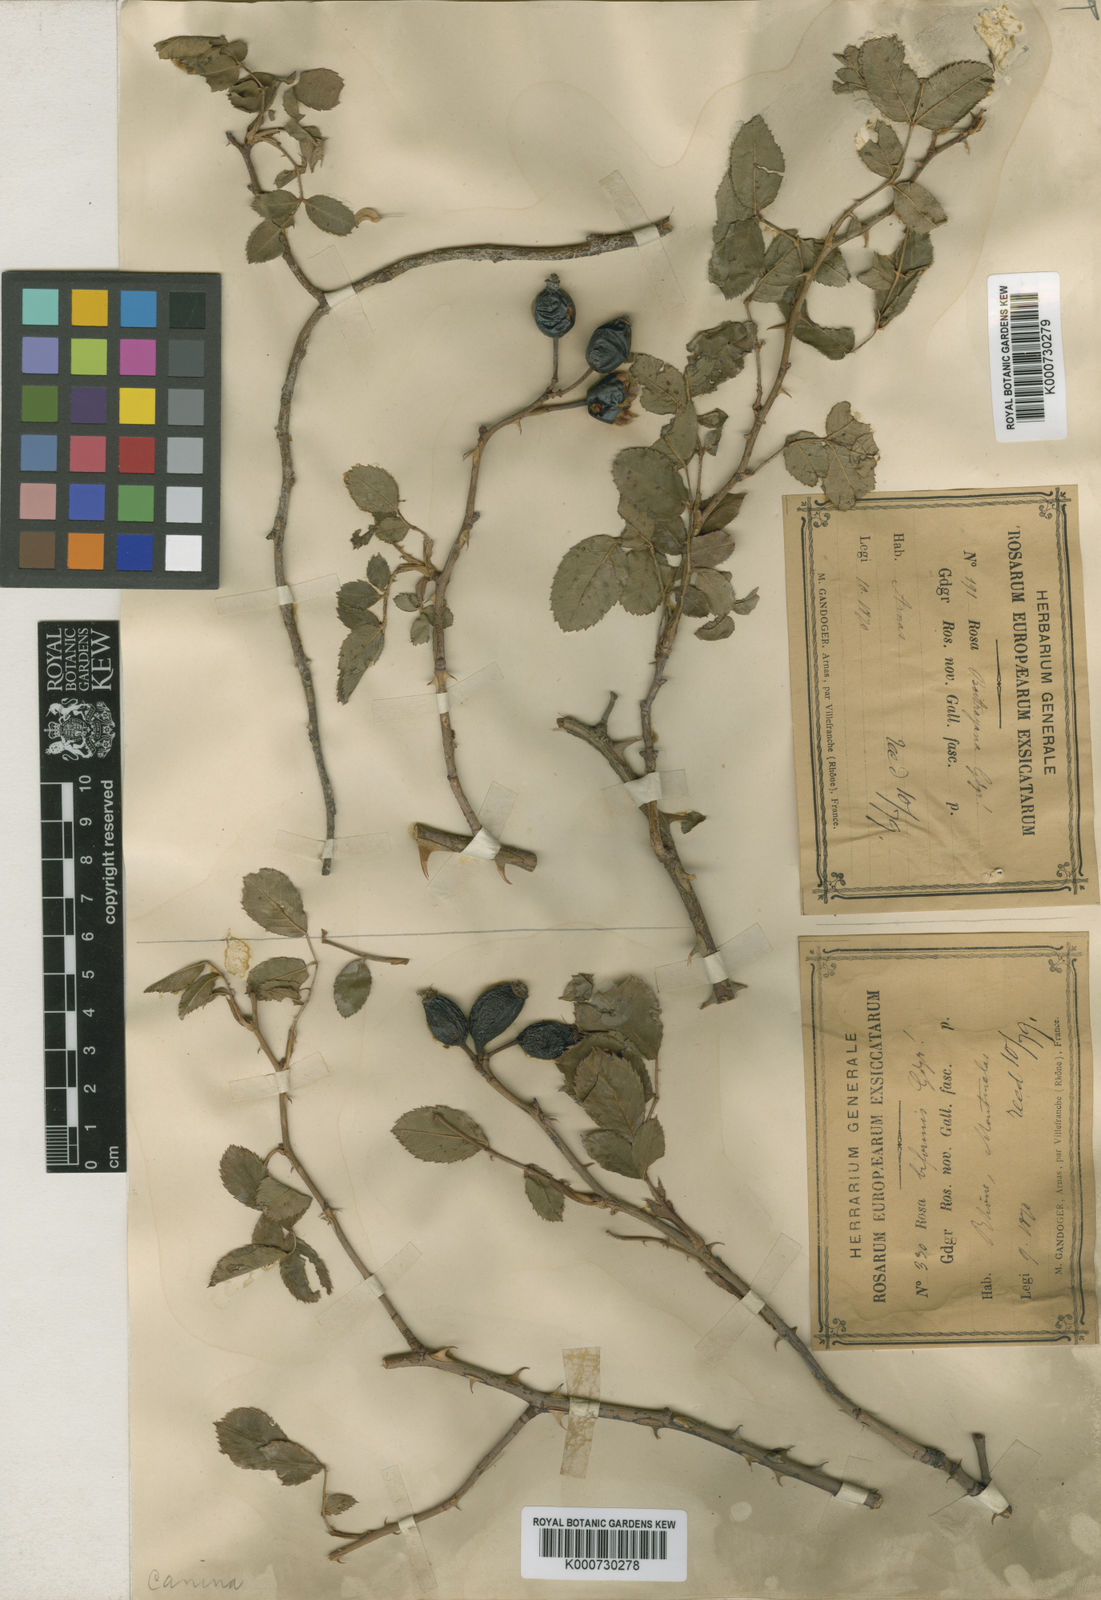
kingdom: Plantae
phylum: Tracheophyta
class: Magnoliopsida
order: Rosales
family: Rosaceae
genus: Rosa
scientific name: Rosa canina
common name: Dog rose
